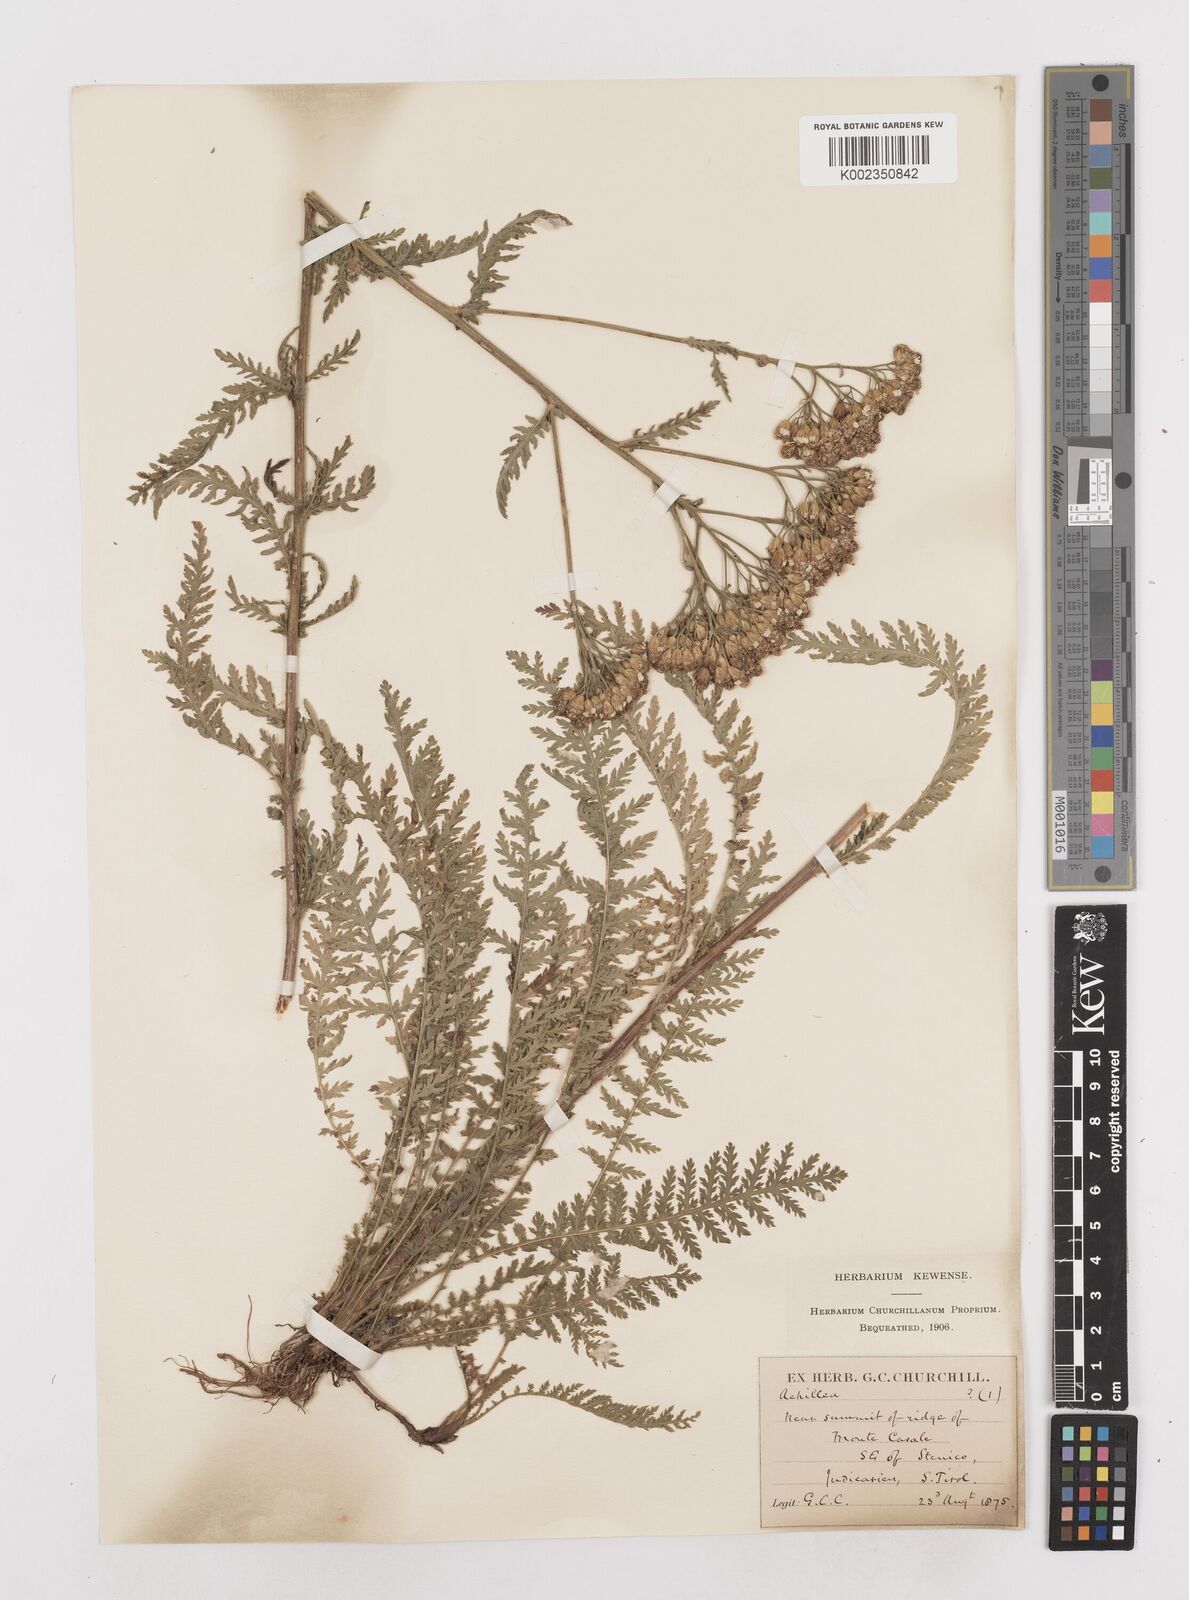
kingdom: Plantae
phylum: Tracheophyta
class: Magnoliopsida
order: Asterales
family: Asteraceae
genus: Achillea
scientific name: Achillea distans
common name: Tall yarrow
